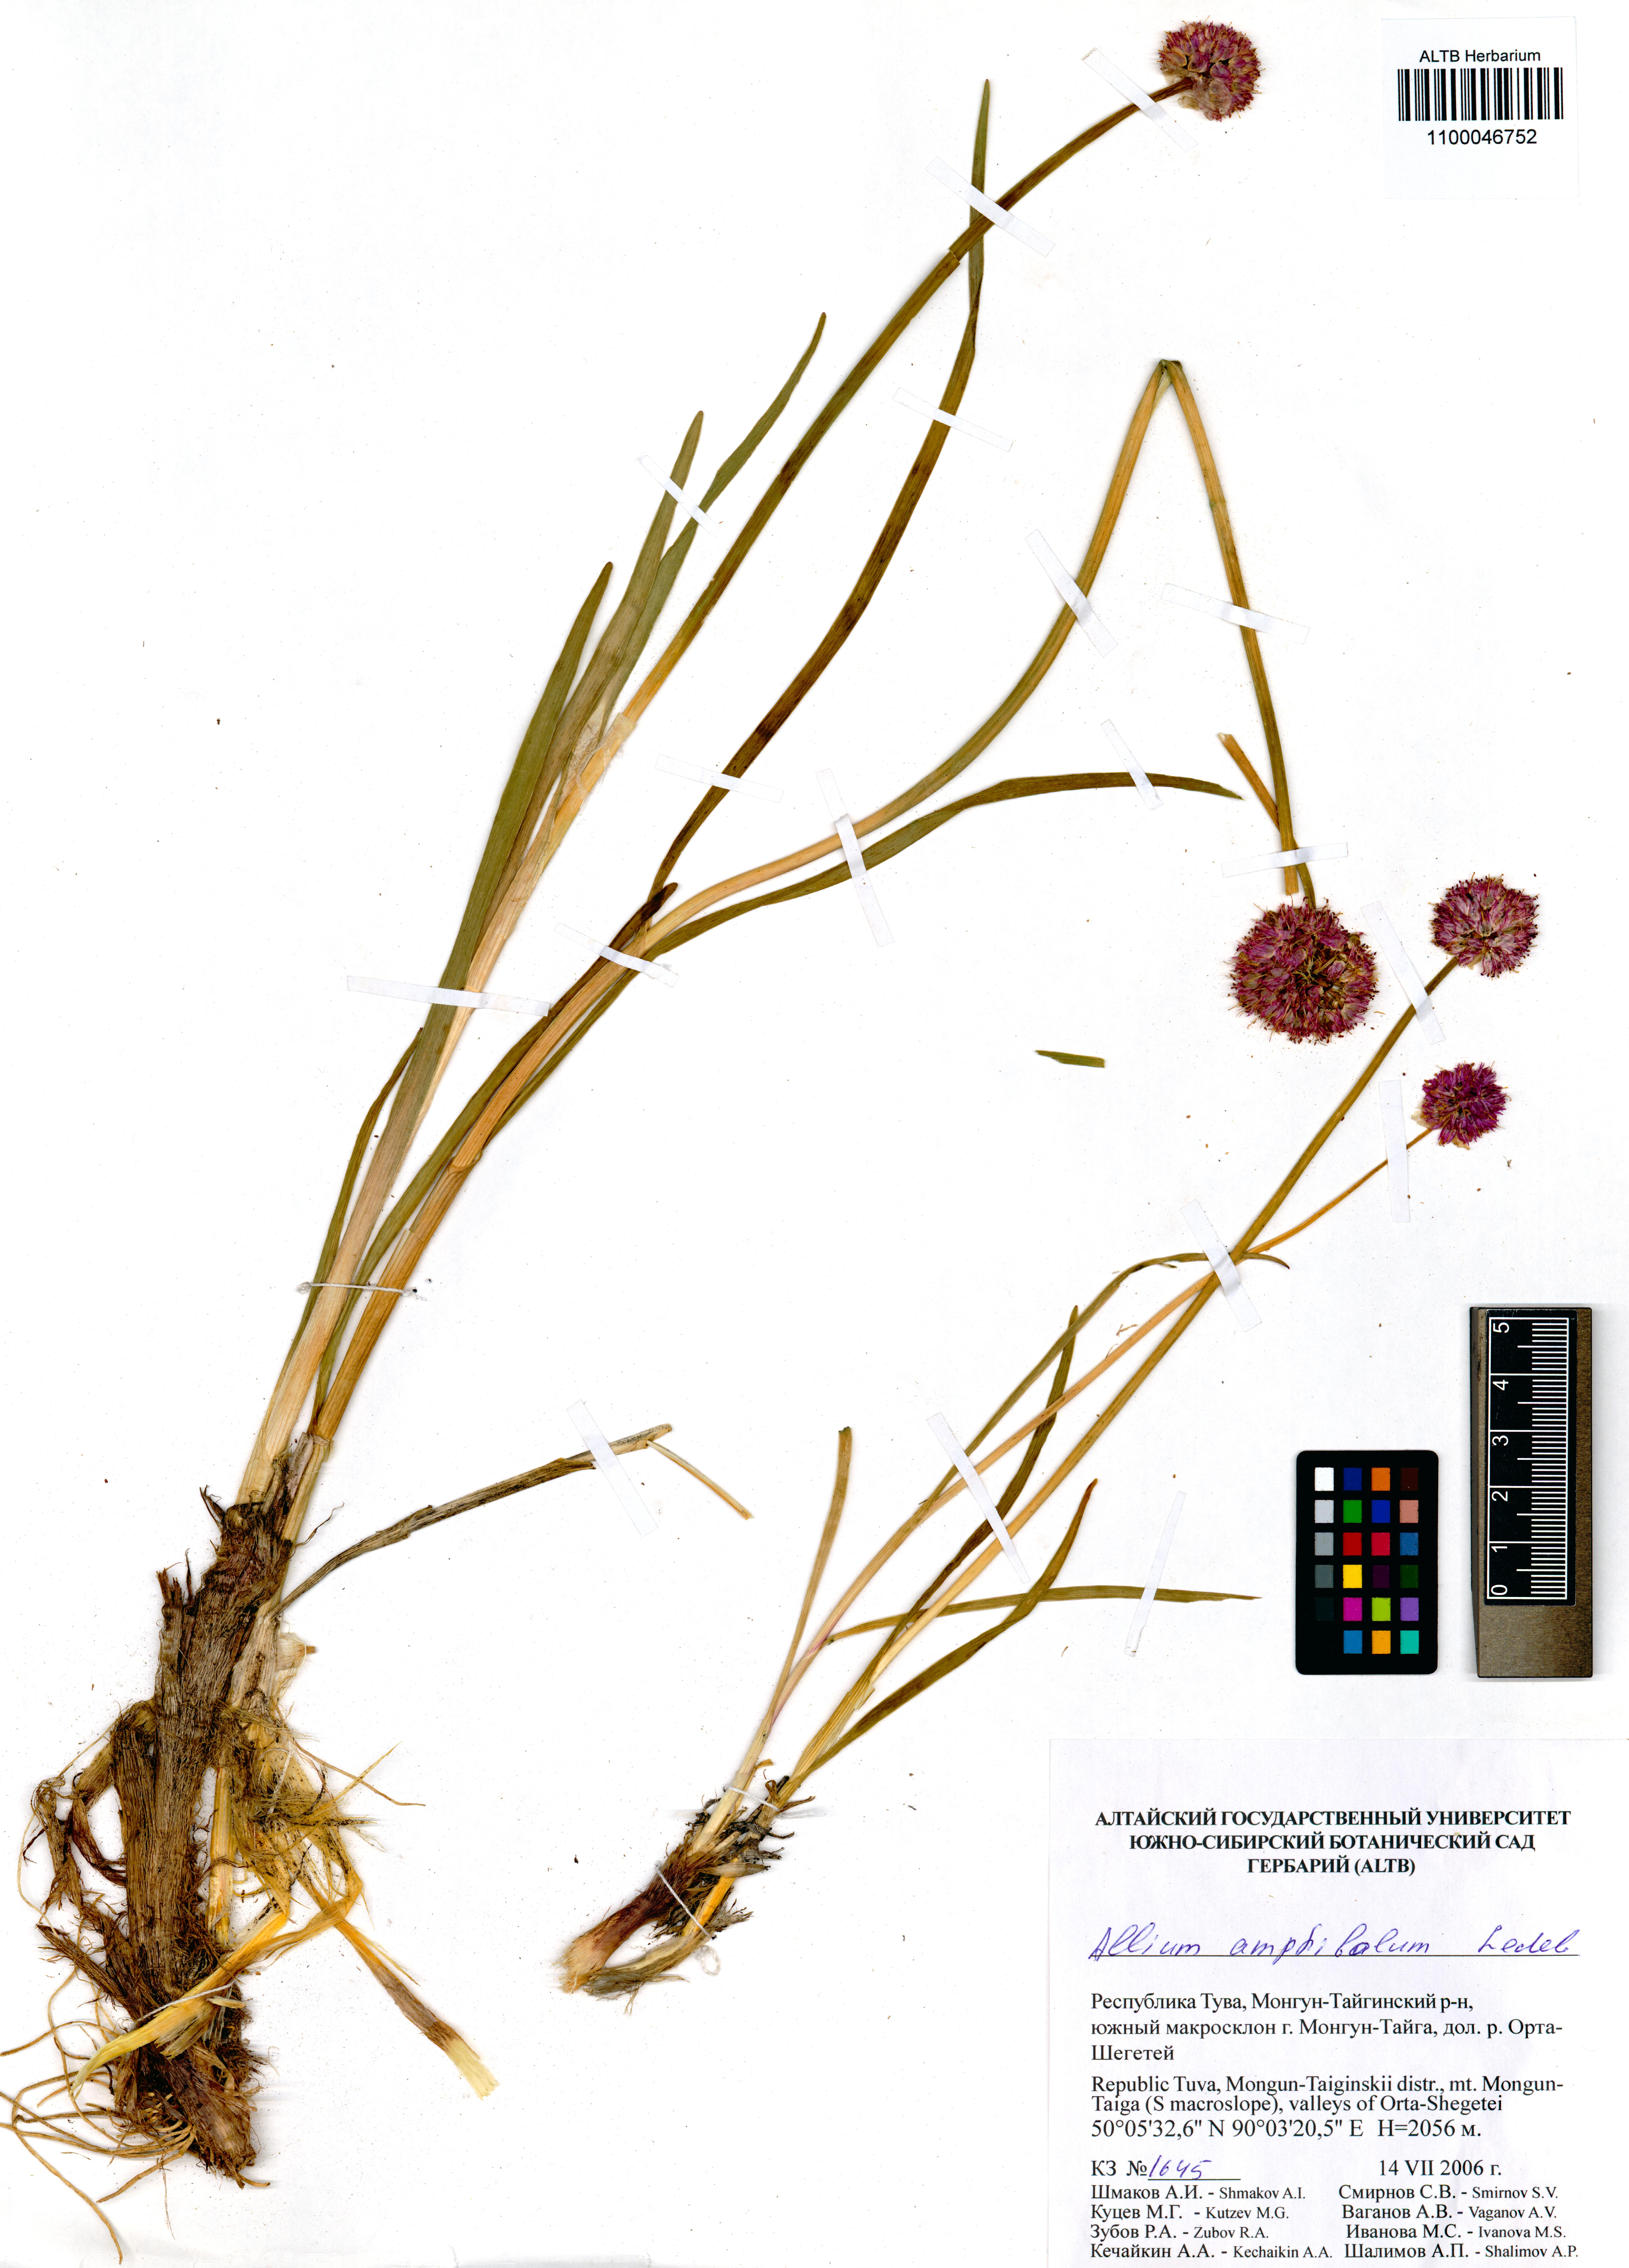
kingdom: Plantae
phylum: Tracheophyta
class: Liliopsida
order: Asparagales
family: Amaryllidaceae
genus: Allium
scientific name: Allium amphibolum
